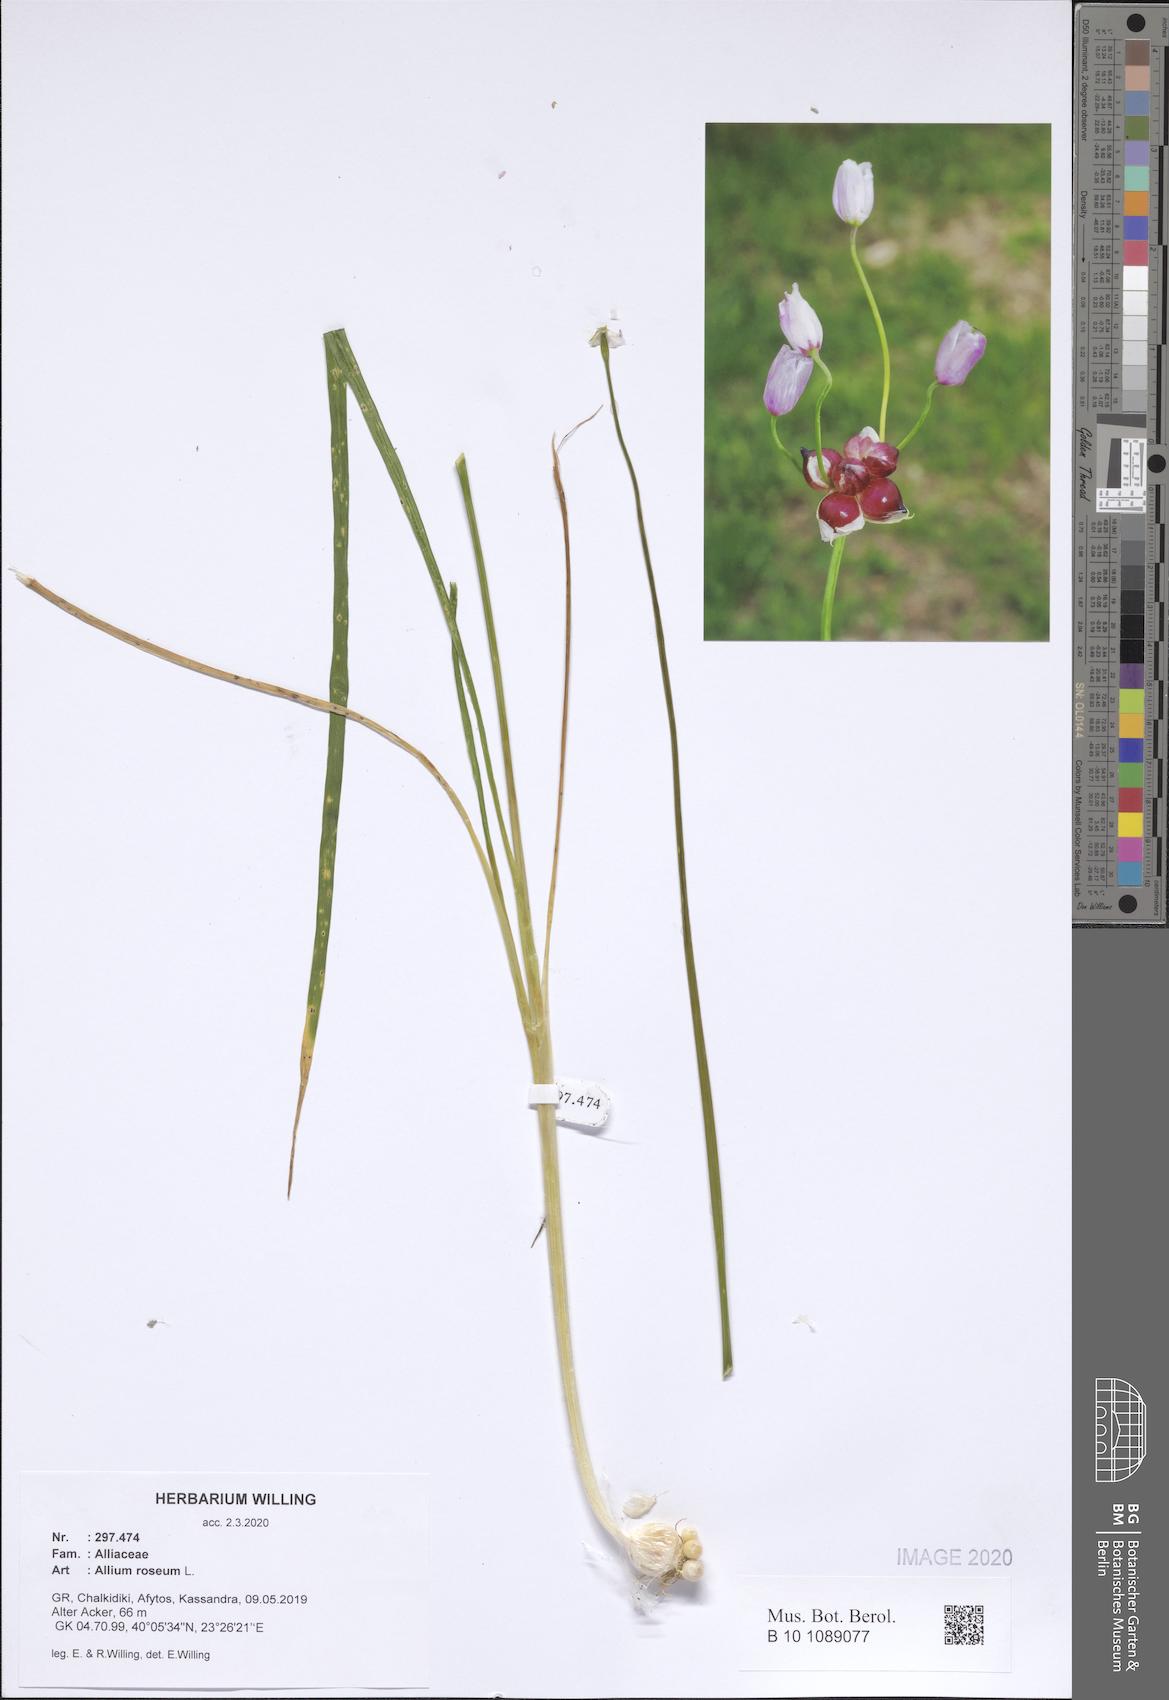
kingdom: Plantae
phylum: Tracheophyta
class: Liliopsida
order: Asparagales
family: Amaryllidaceae
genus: Allium
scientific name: Allium roseum
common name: Rosy garlic
